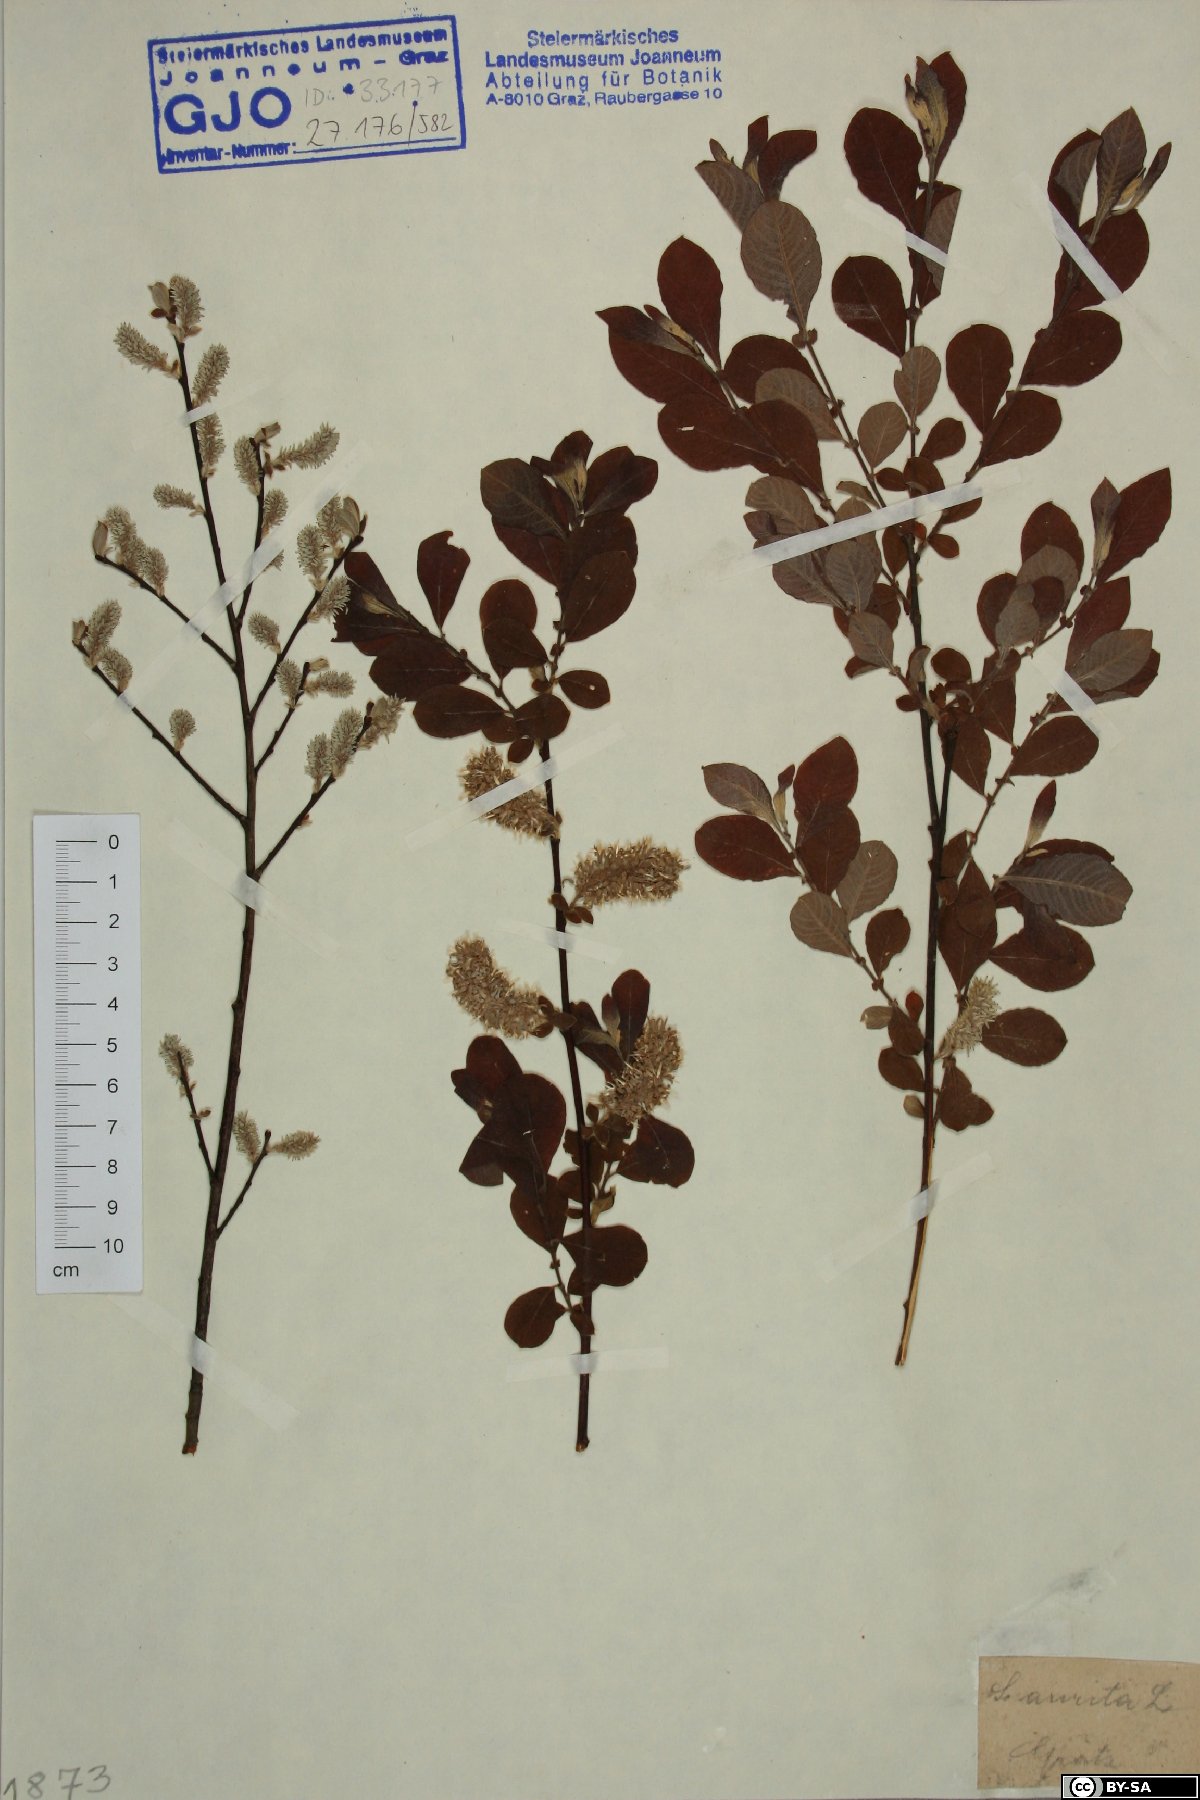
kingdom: Plantae
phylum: Tracheophyta
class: Magnoliopsida
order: Malpighiales
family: Salicaceae
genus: Salix
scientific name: Salix aurita
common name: Eared willow
